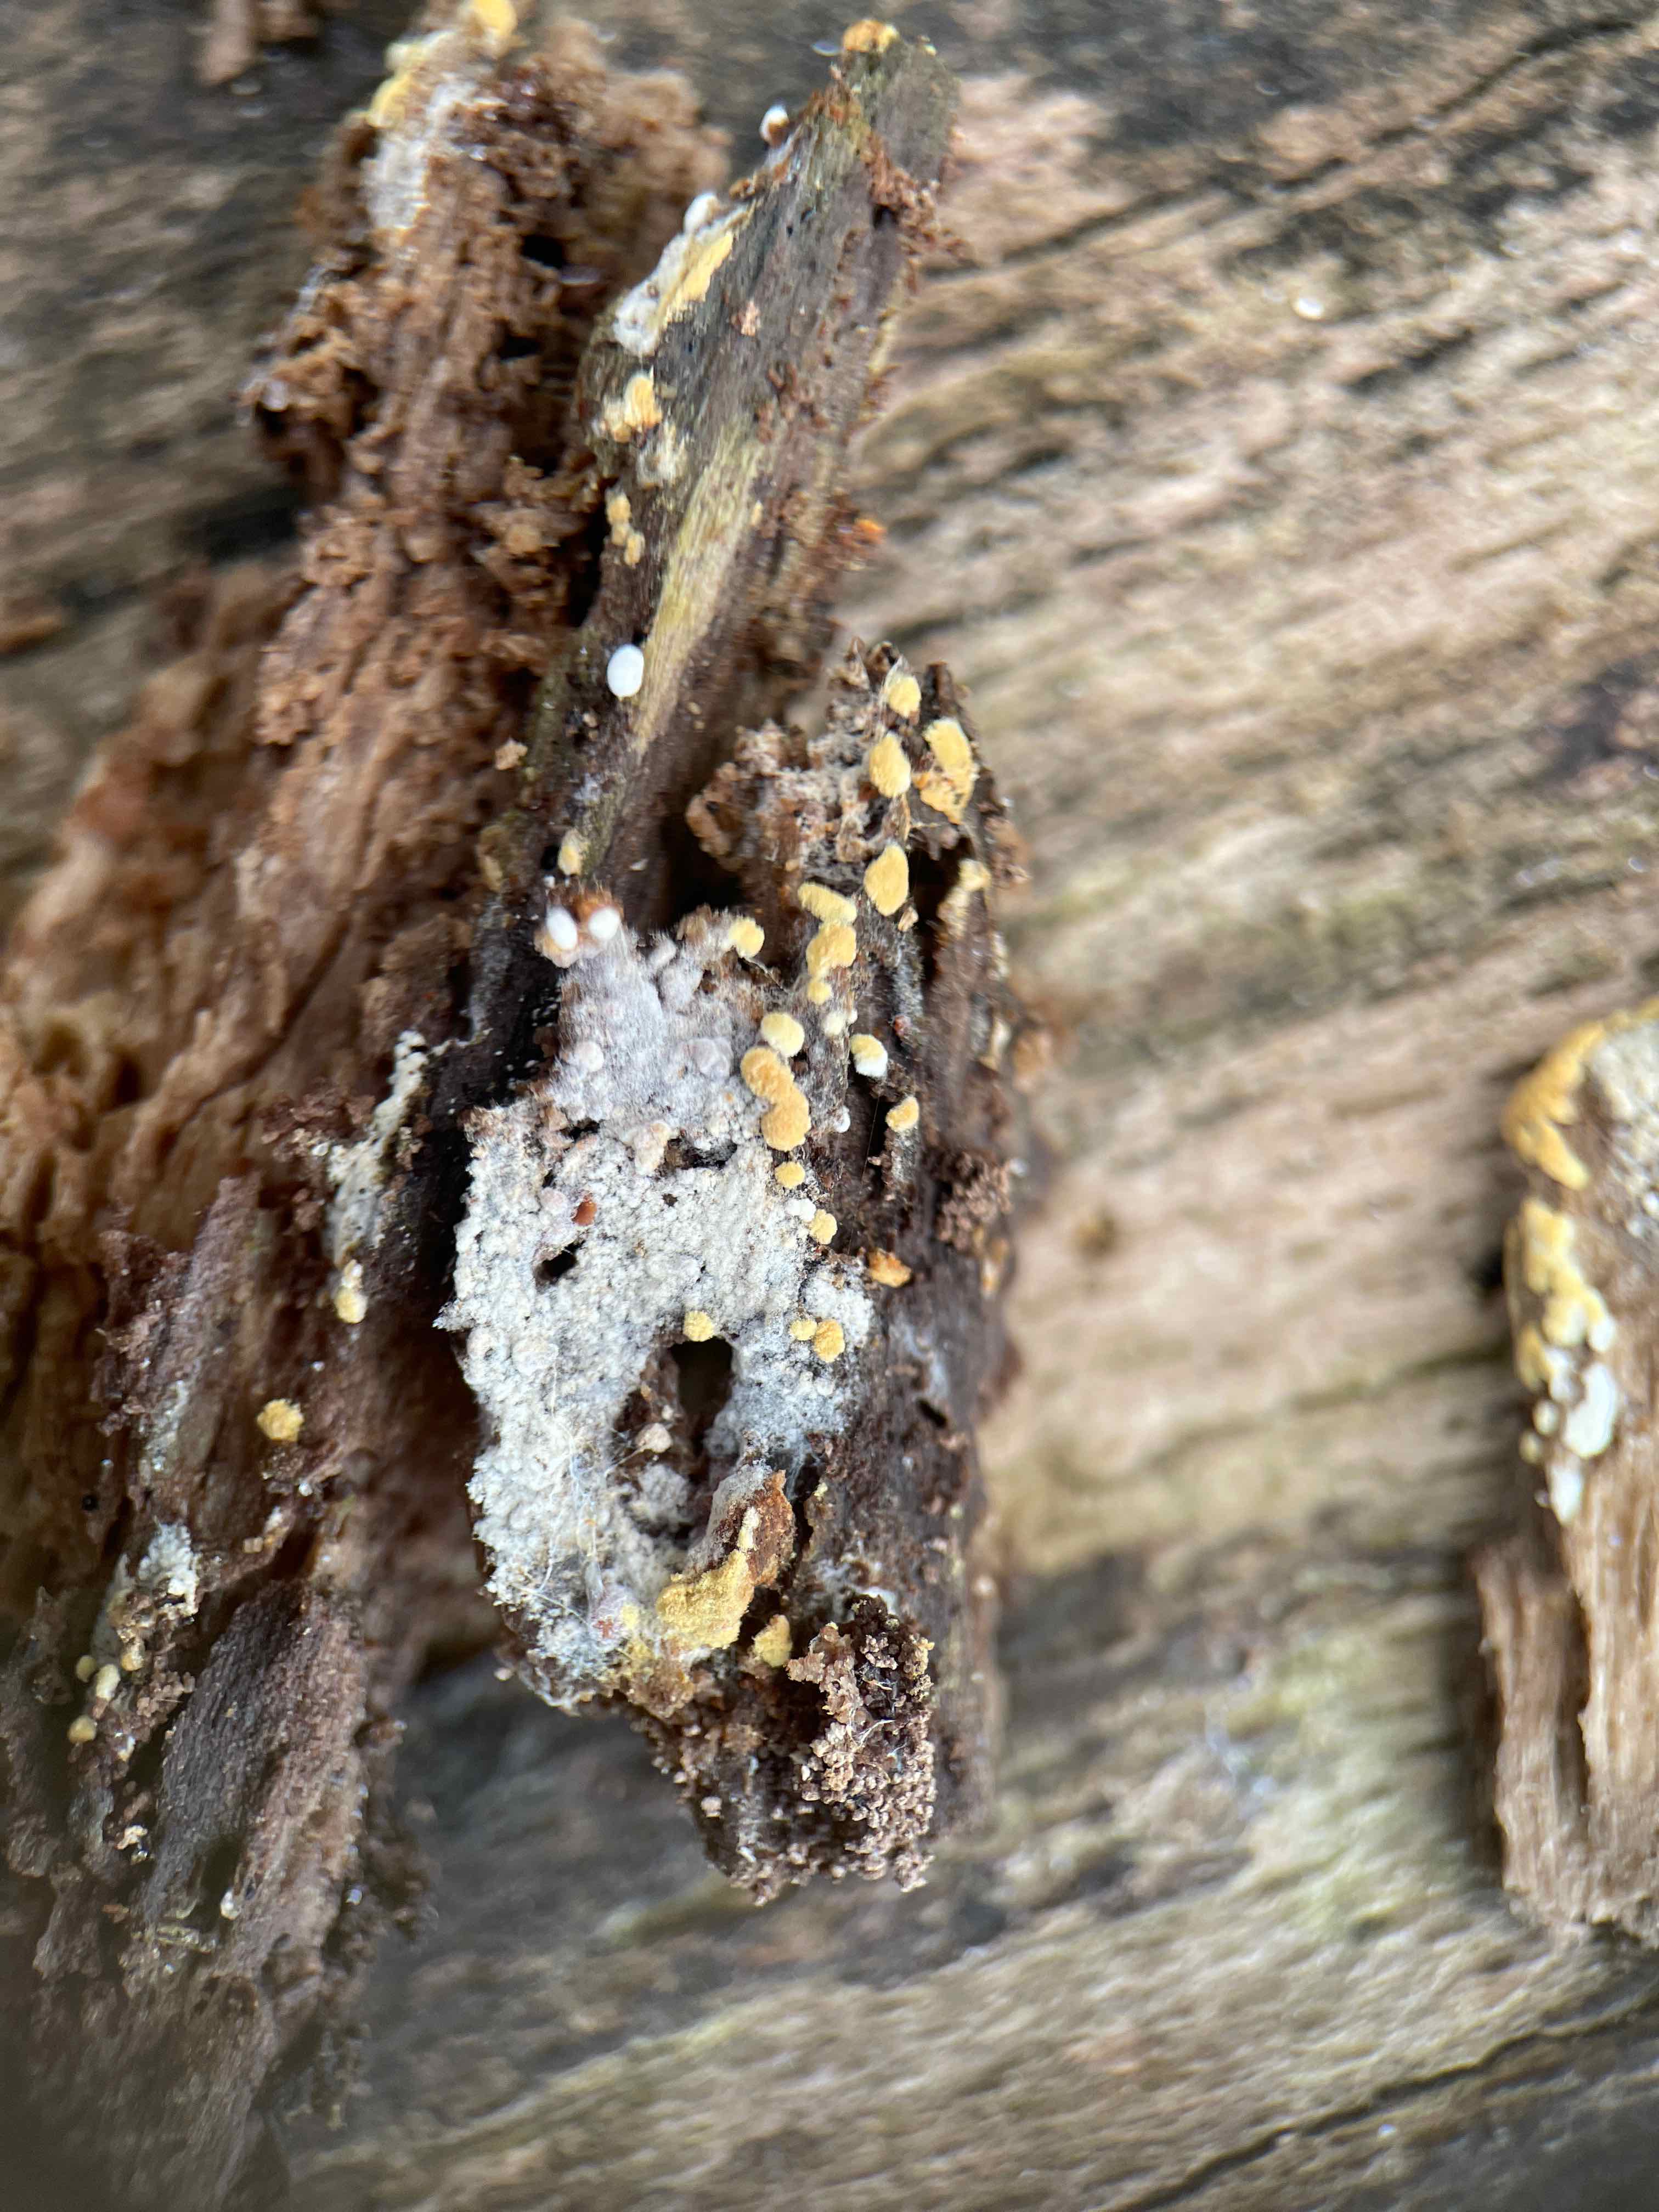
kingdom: Fungi
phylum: Basidiomycota
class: Agaricomycetes
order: Cantharellales
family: Botryobasidiaceae
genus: Botryobasidium
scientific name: Botryobasidium aureum
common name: gylden spindhinde
